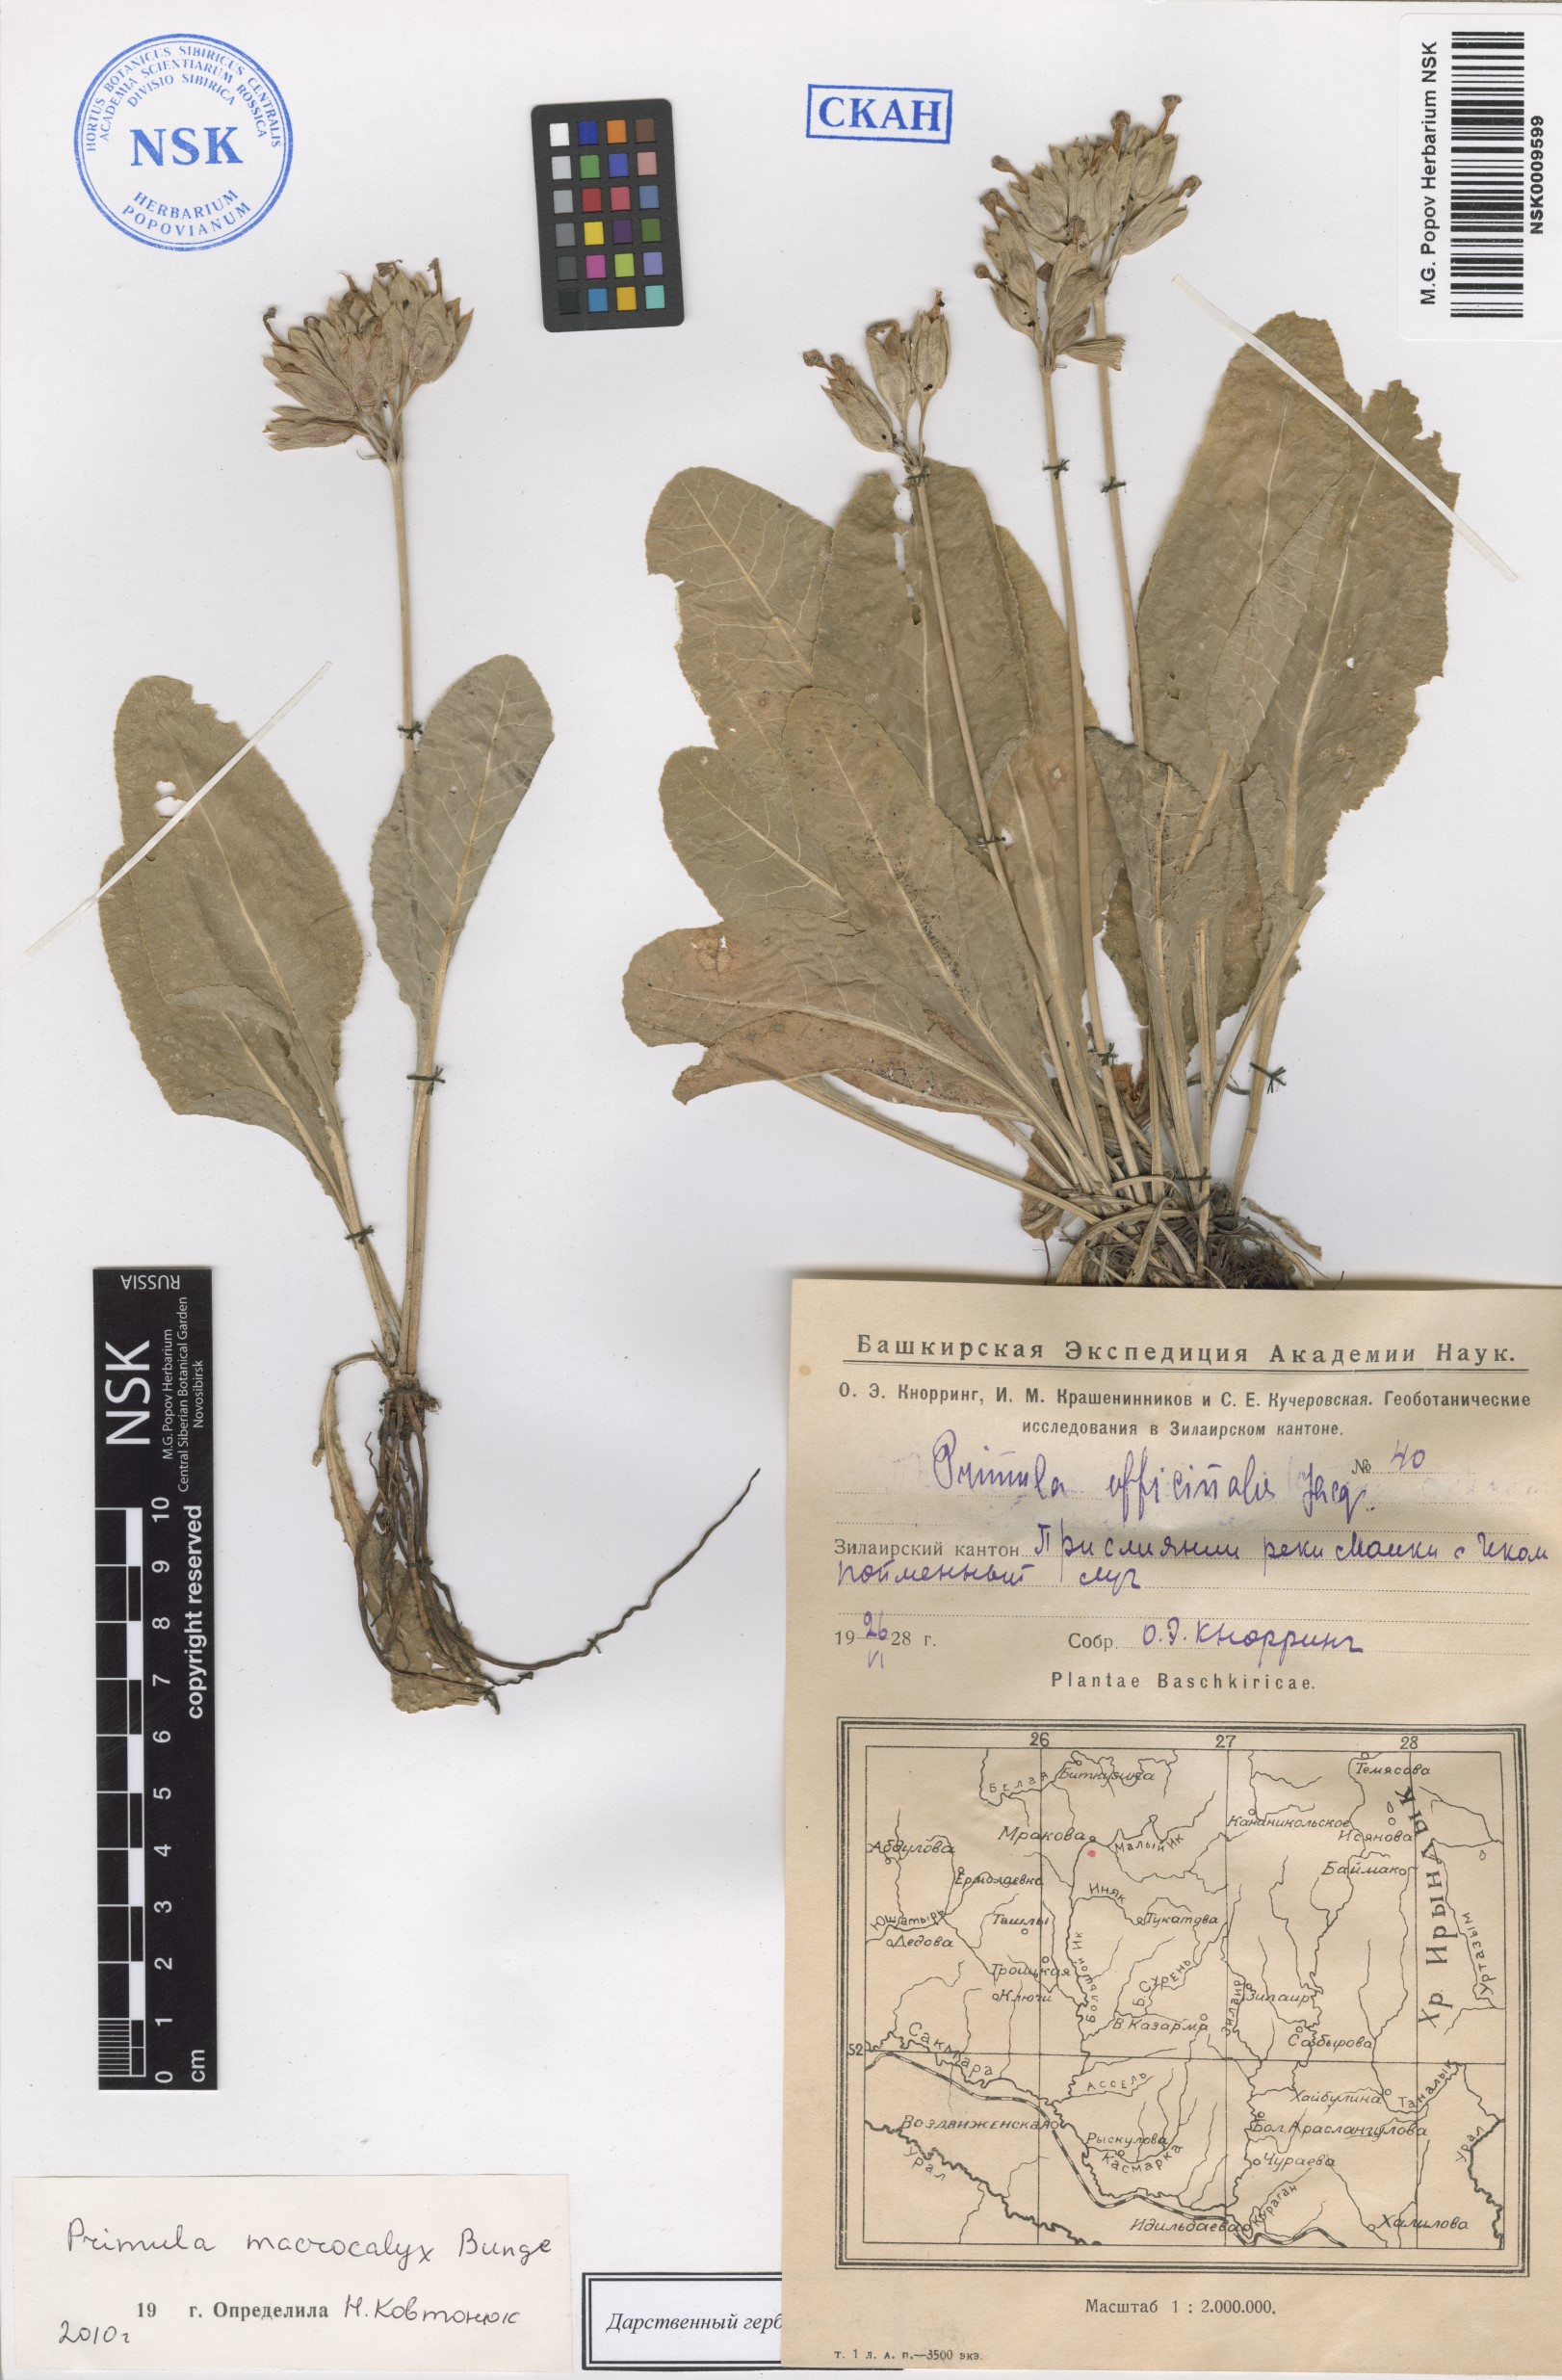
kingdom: Plantae
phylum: Tracheophyta
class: Magnoliopsida
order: Ericales
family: Primulaceae
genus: Primula
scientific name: Primula veris
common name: Cowslip
